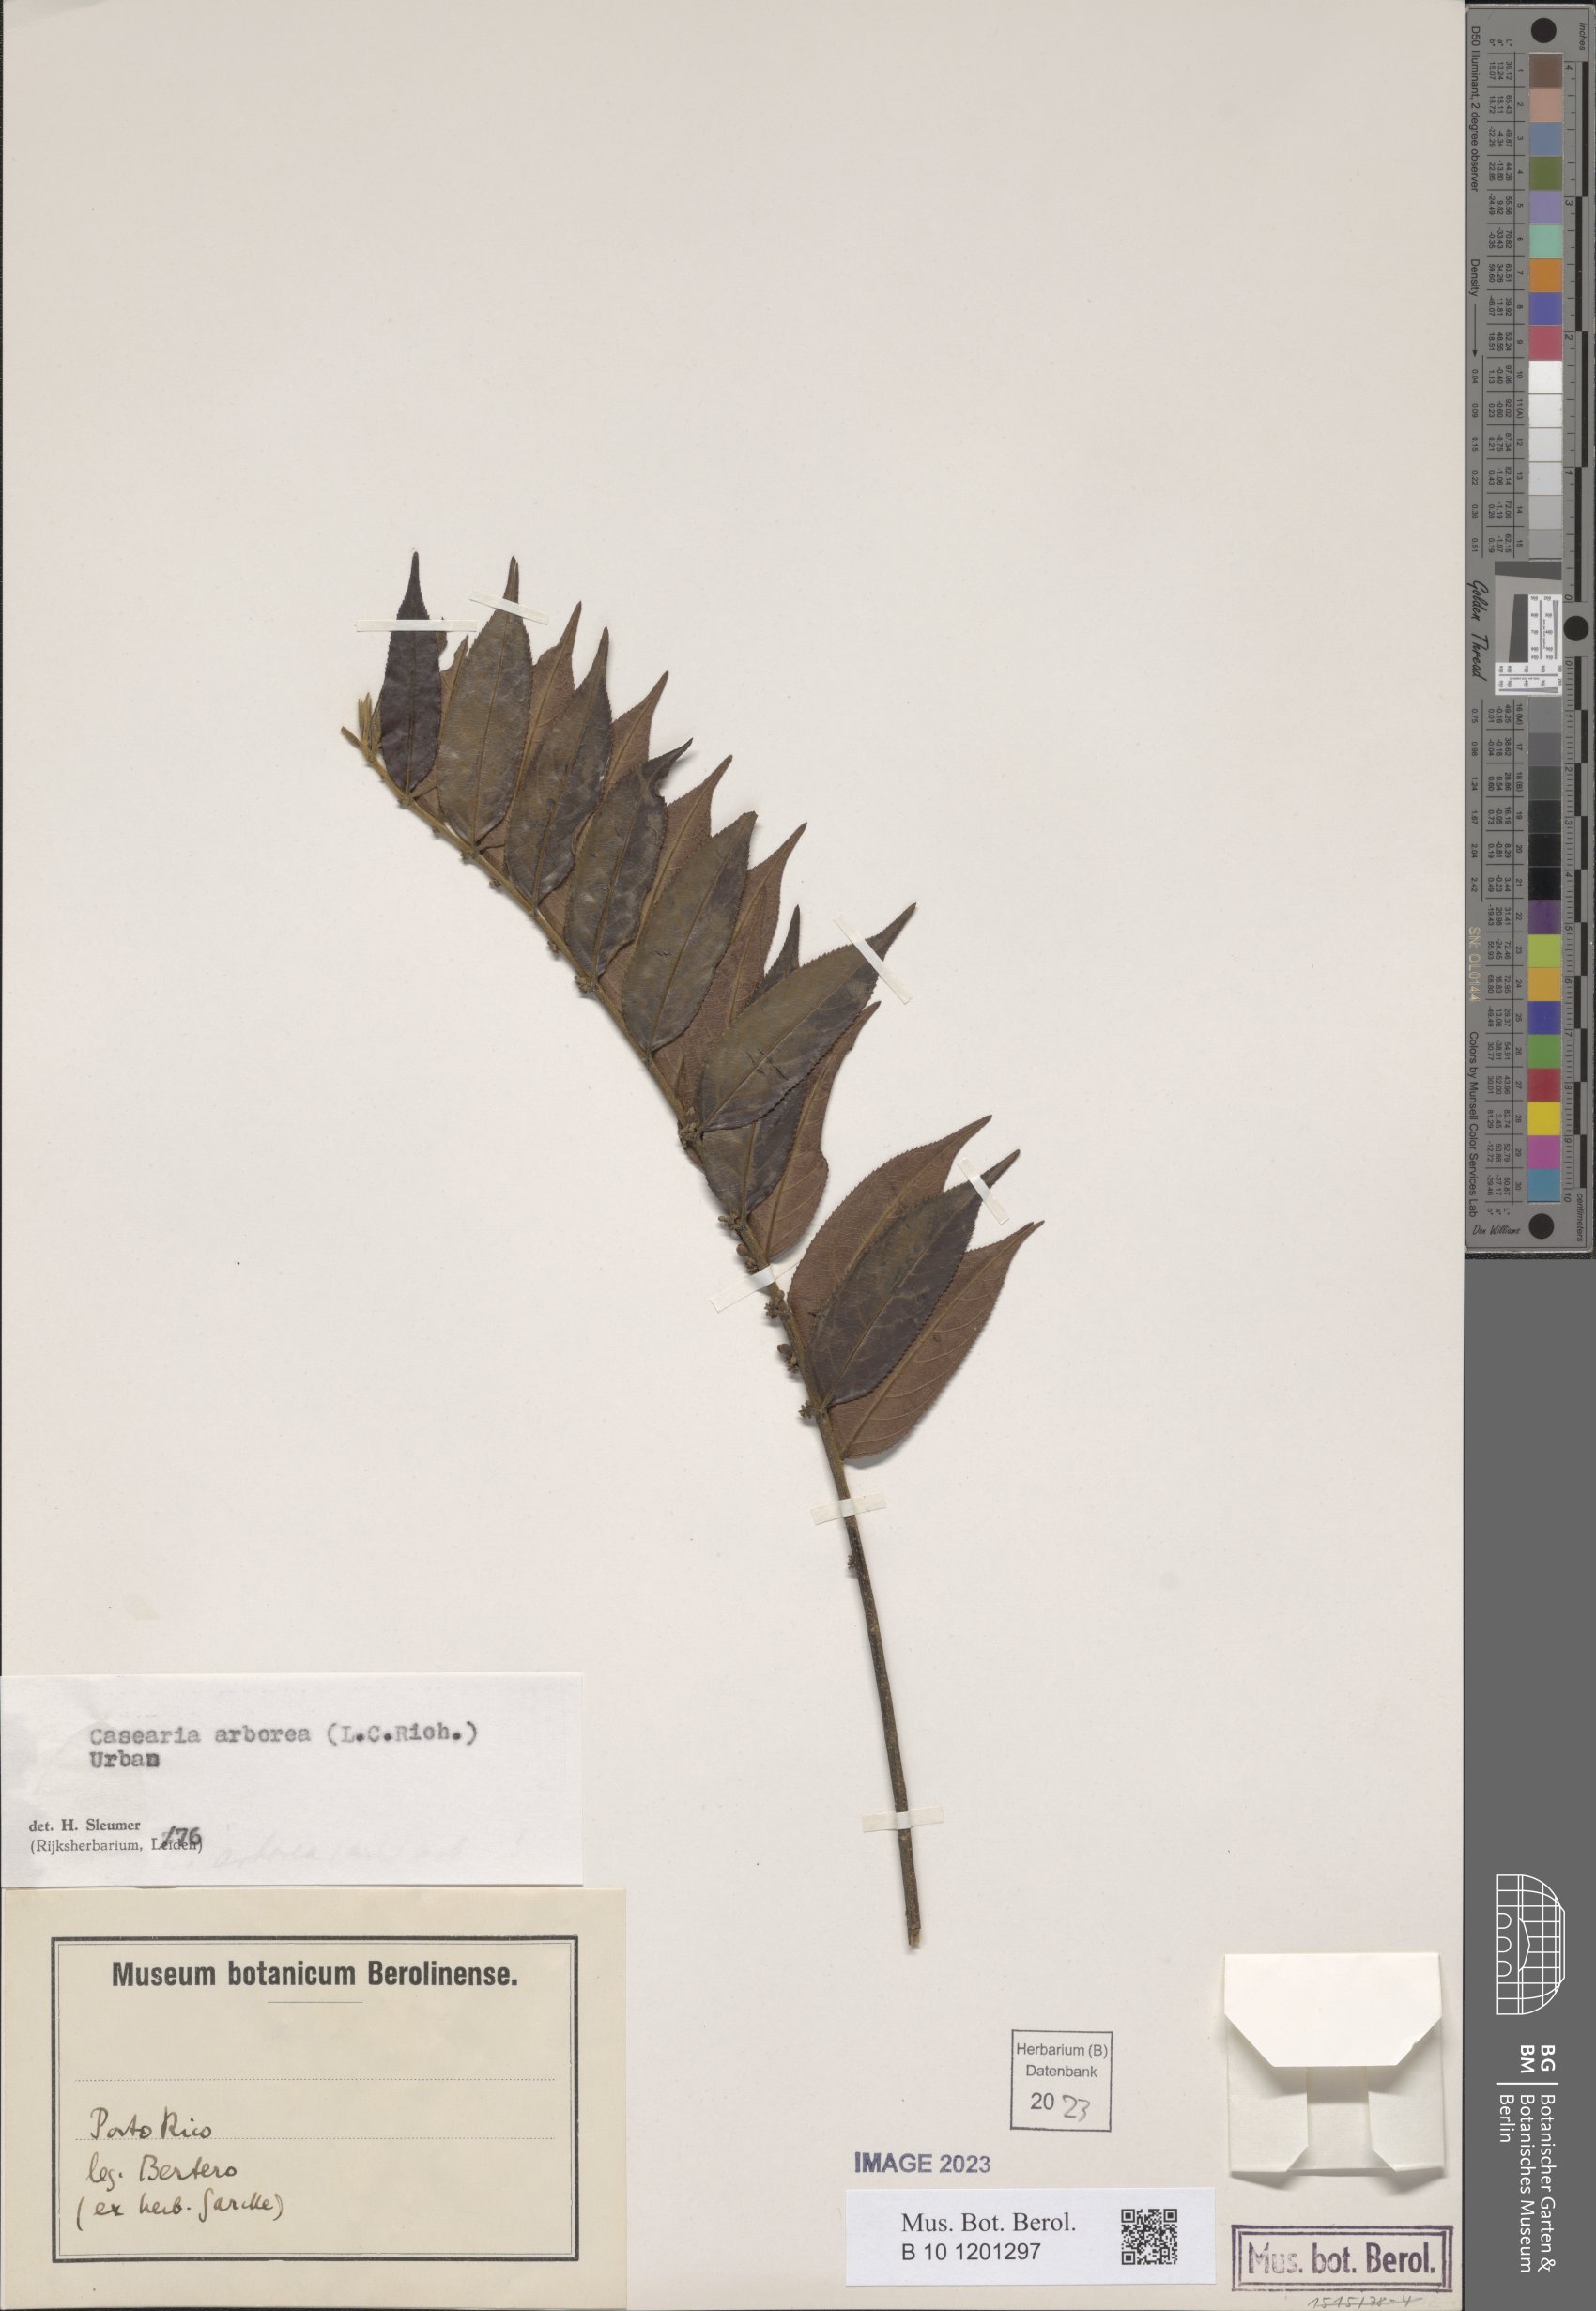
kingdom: Plantae
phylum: Tracheophyta
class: Magnoliopsida
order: Malpighiales
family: Salicaceae
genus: Casearia
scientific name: Casearia arborea
